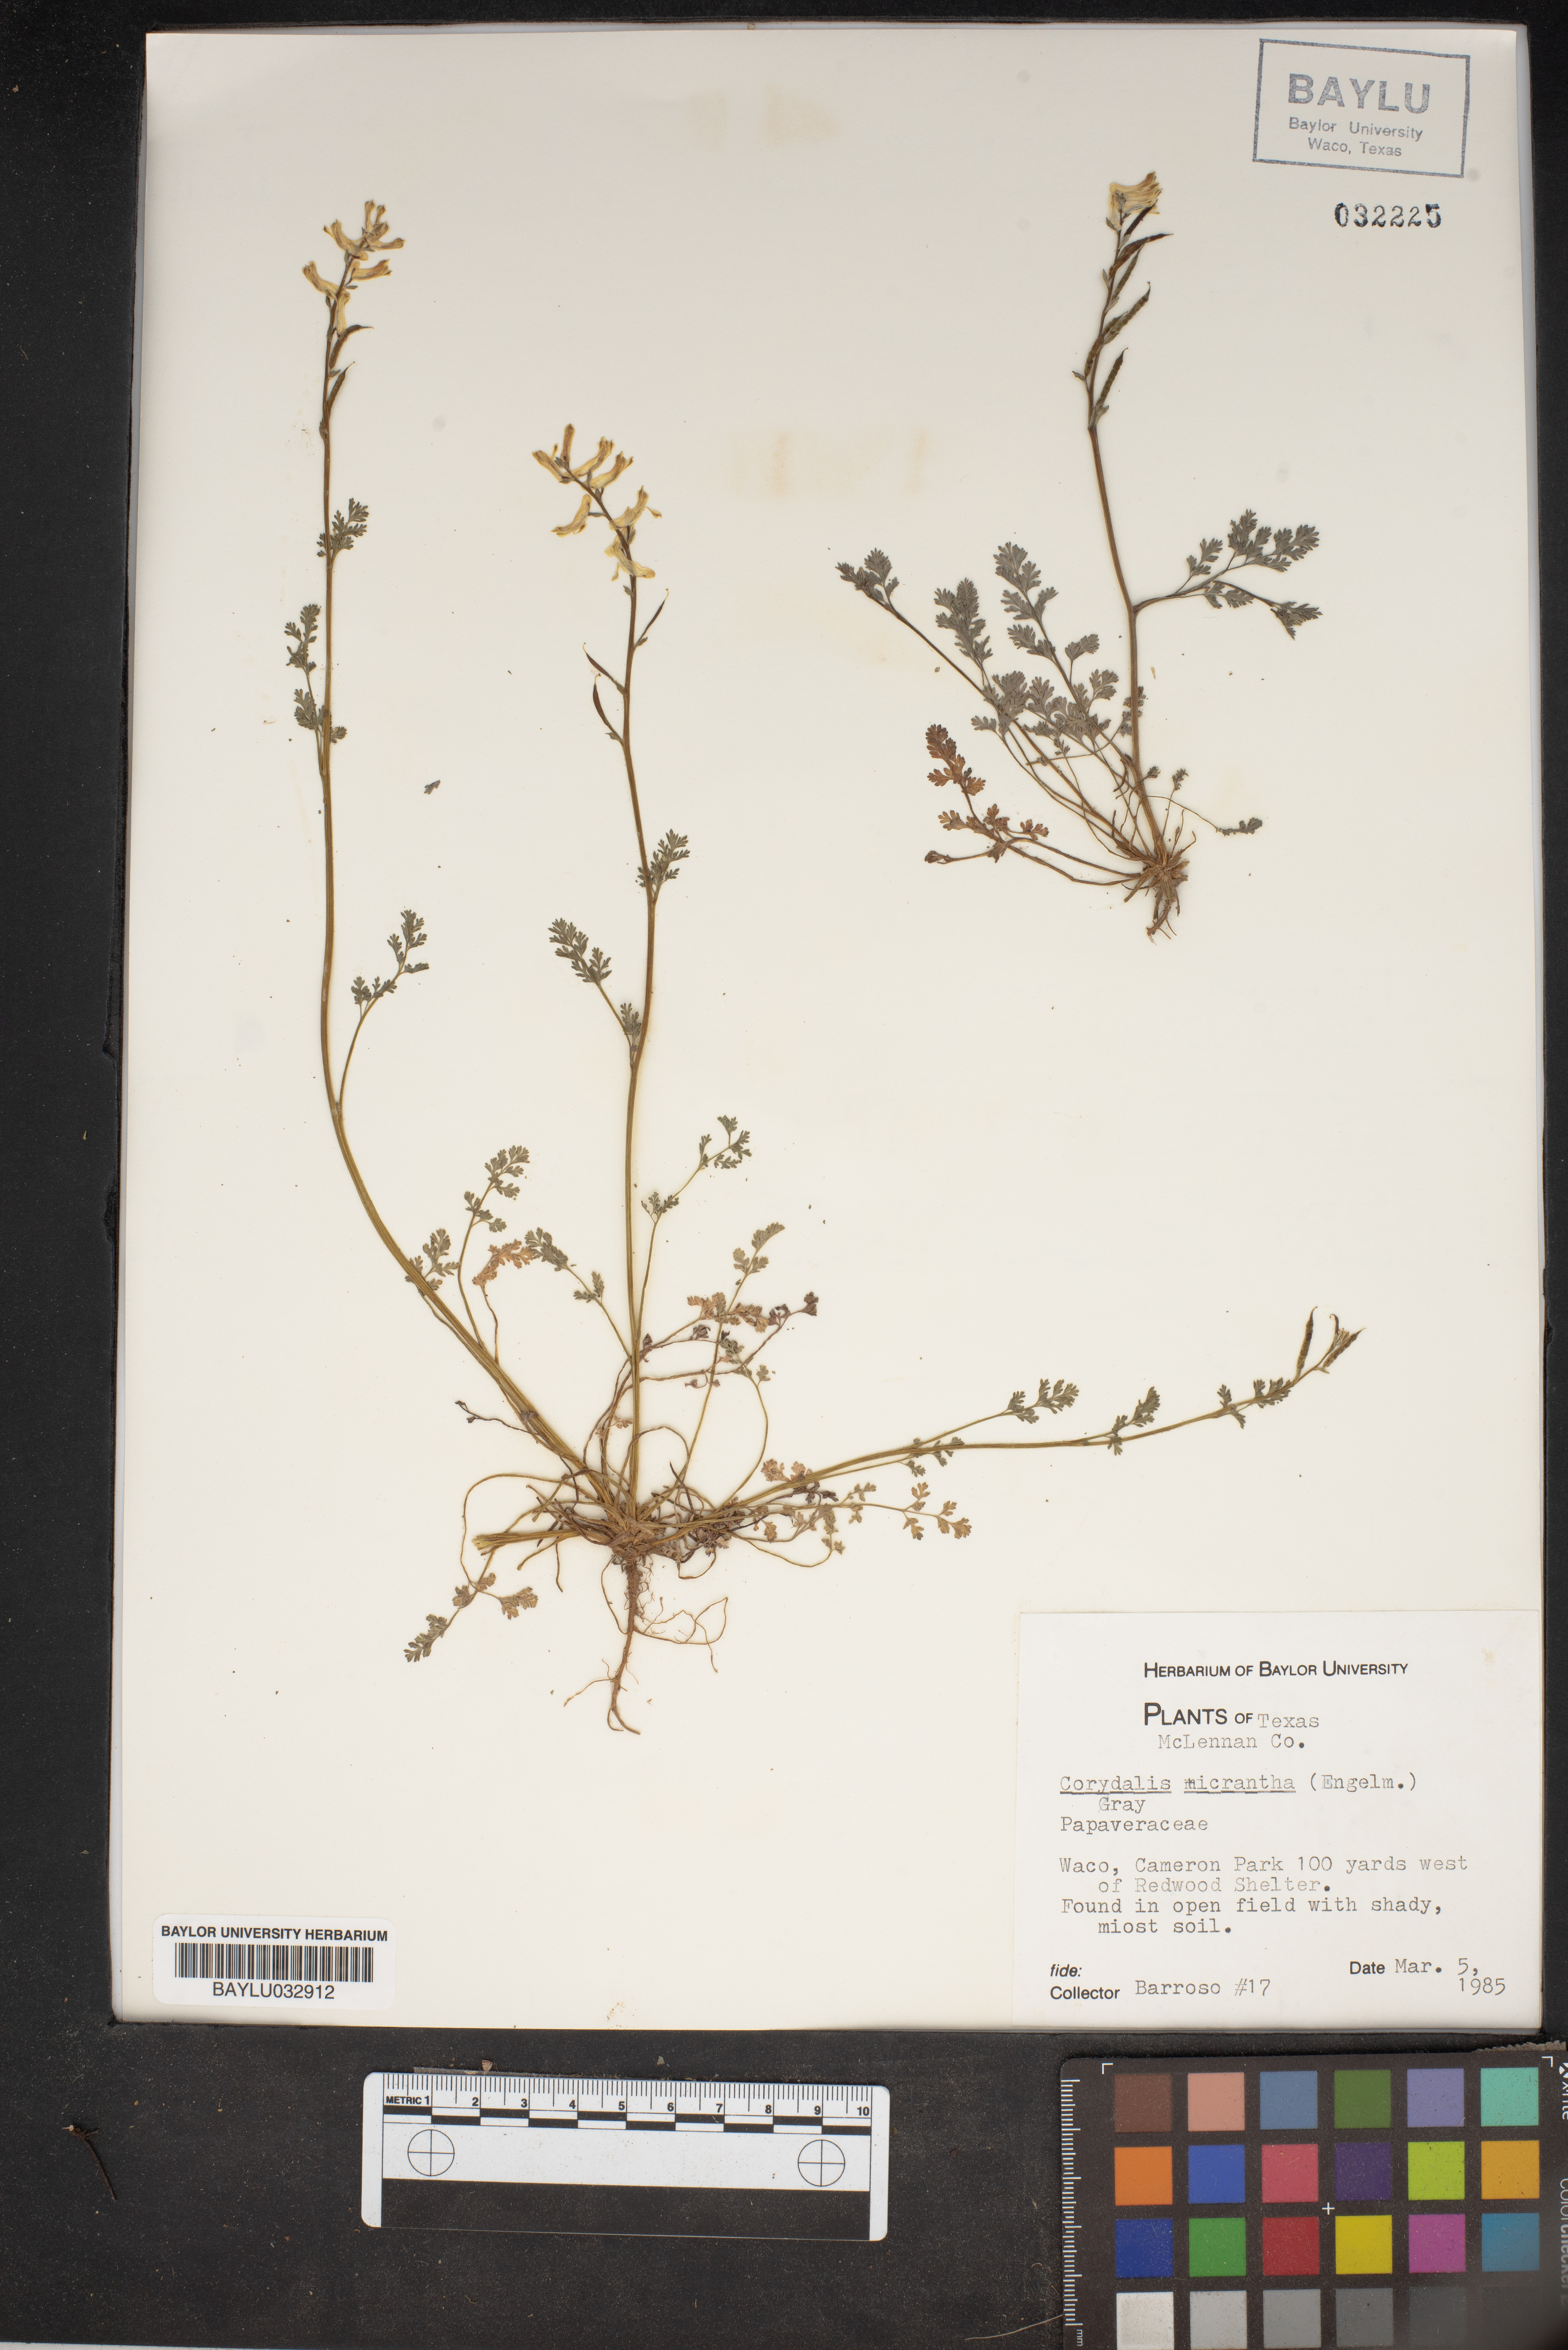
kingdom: Plantae
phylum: Tracheophyta
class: Magnoliopsida
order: Ranunculales
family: Papaveraceae
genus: Corydalis
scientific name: Corydalis micrantha
